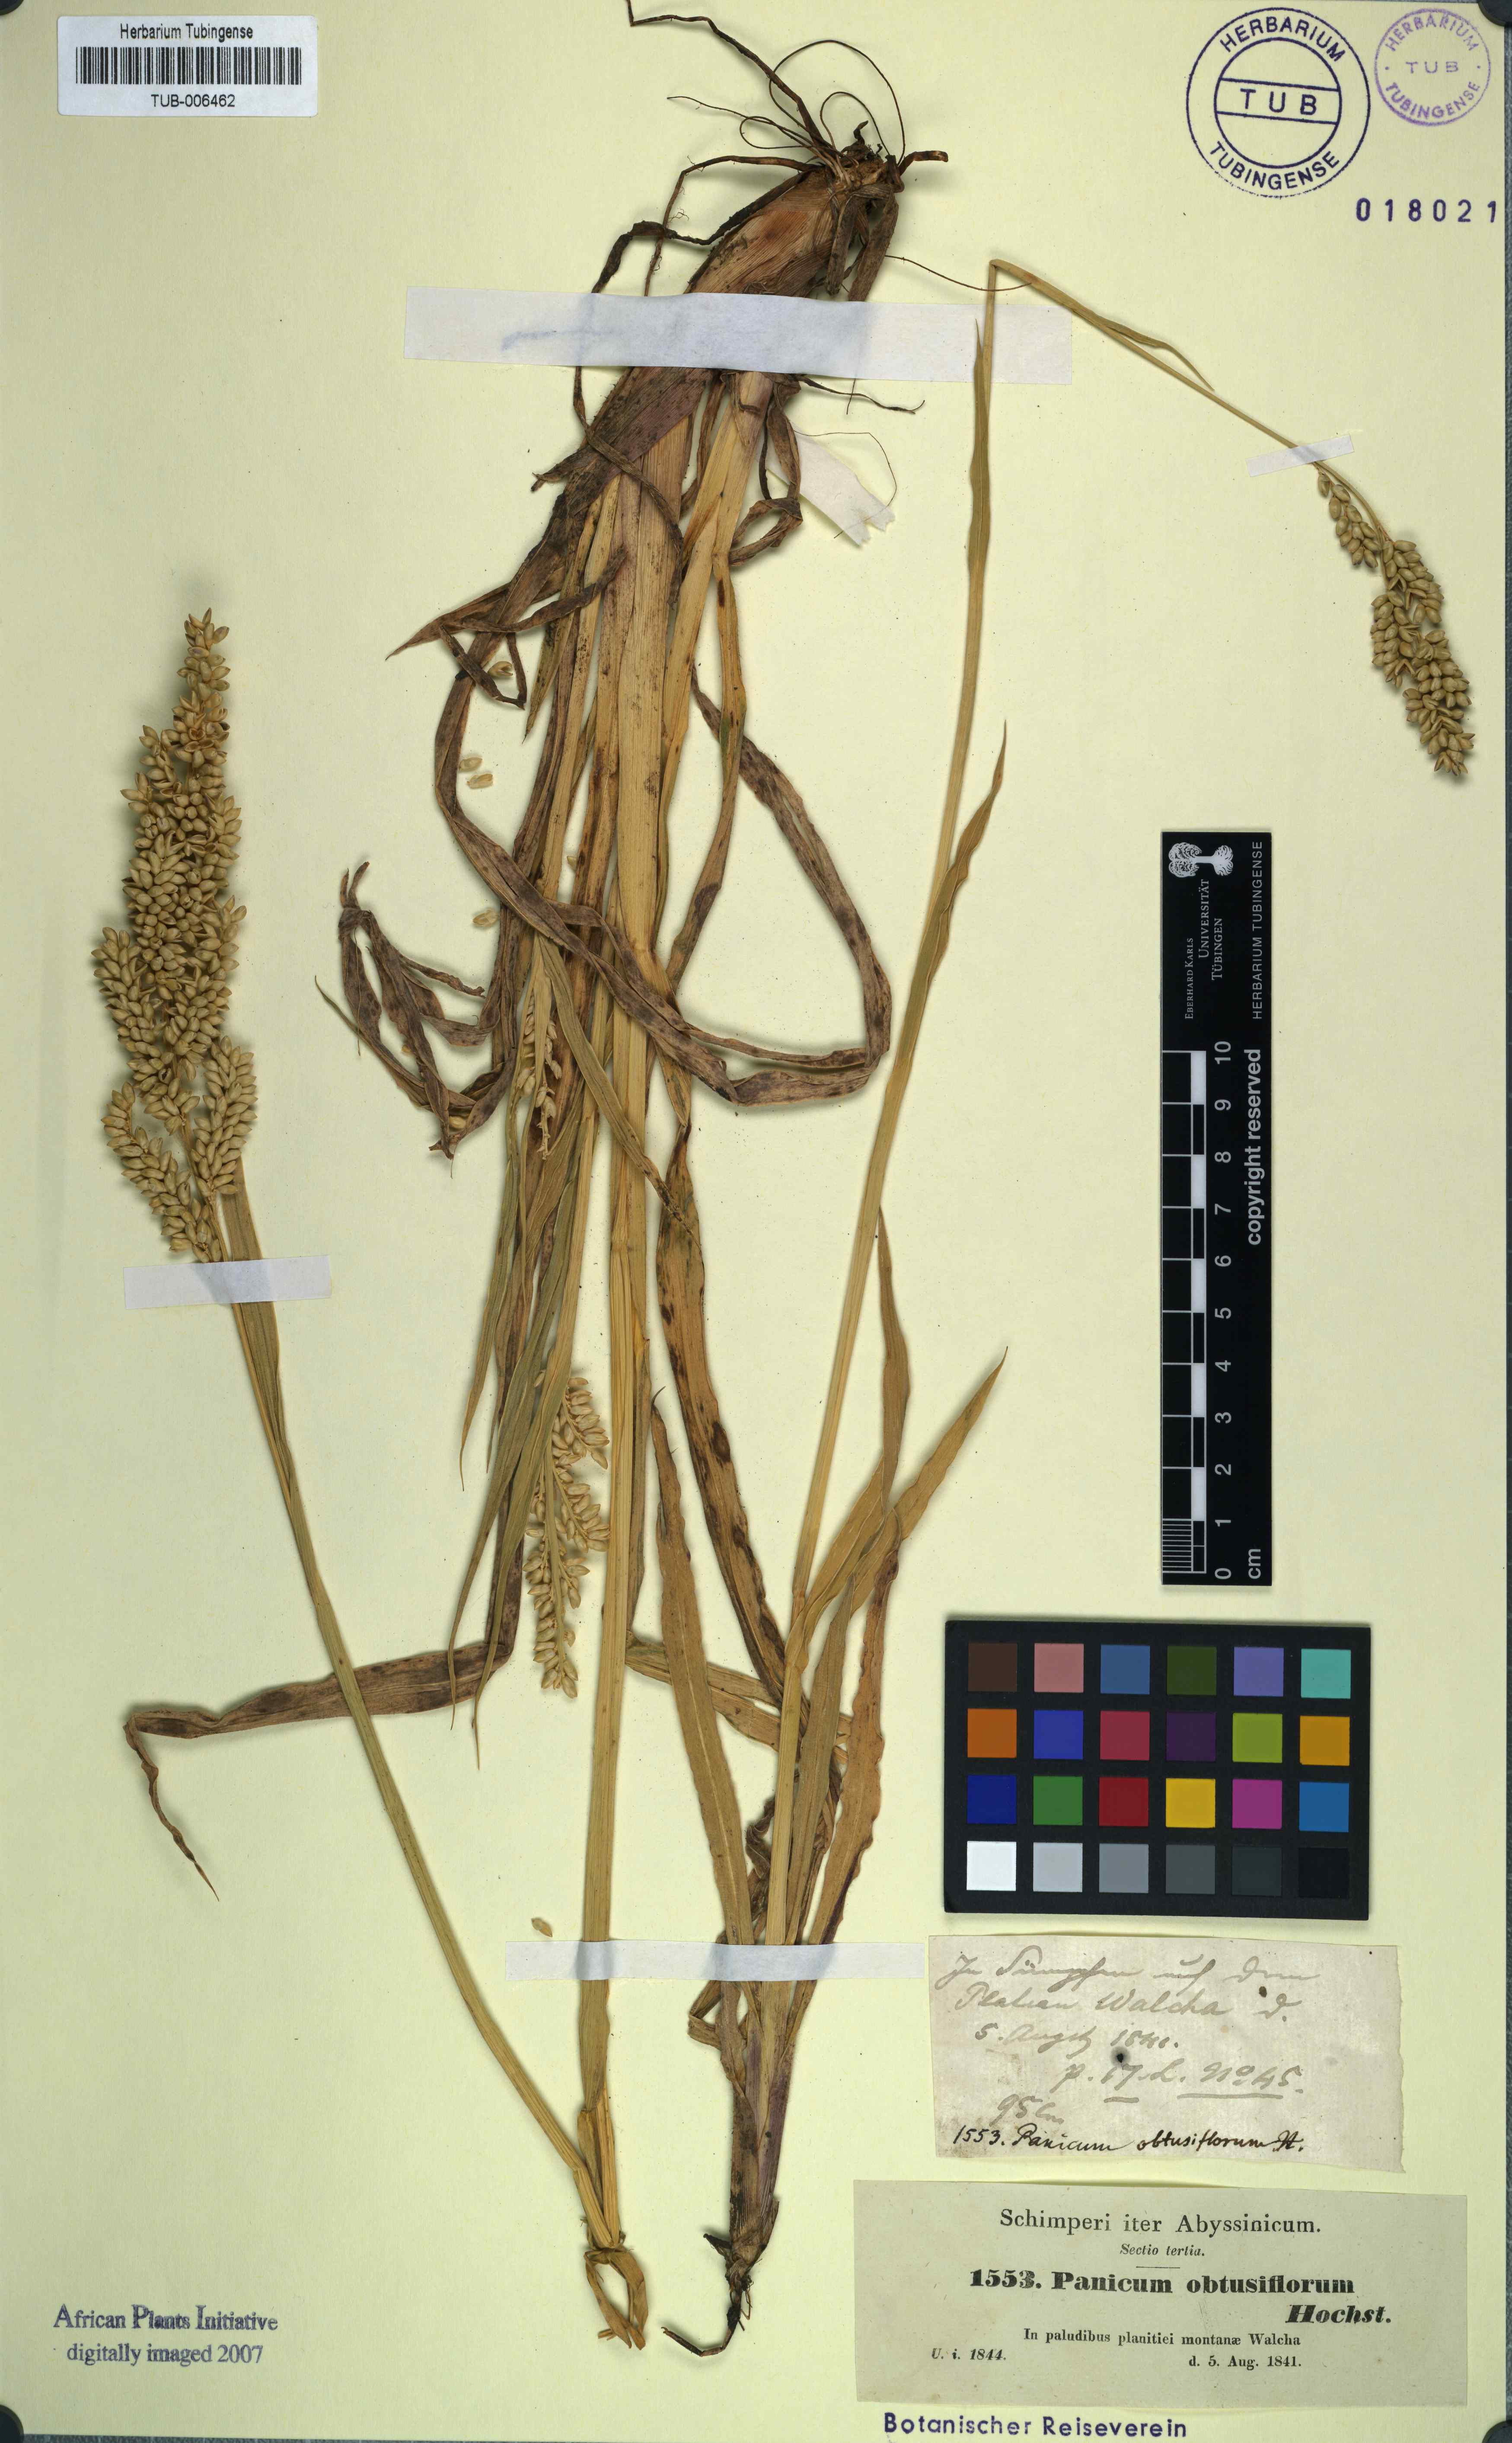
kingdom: Plantae
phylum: Tracheophyta
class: Liliopsida
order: Poales
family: Poaceae
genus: Echinochloa
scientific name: Echinochloa rotundiflora
